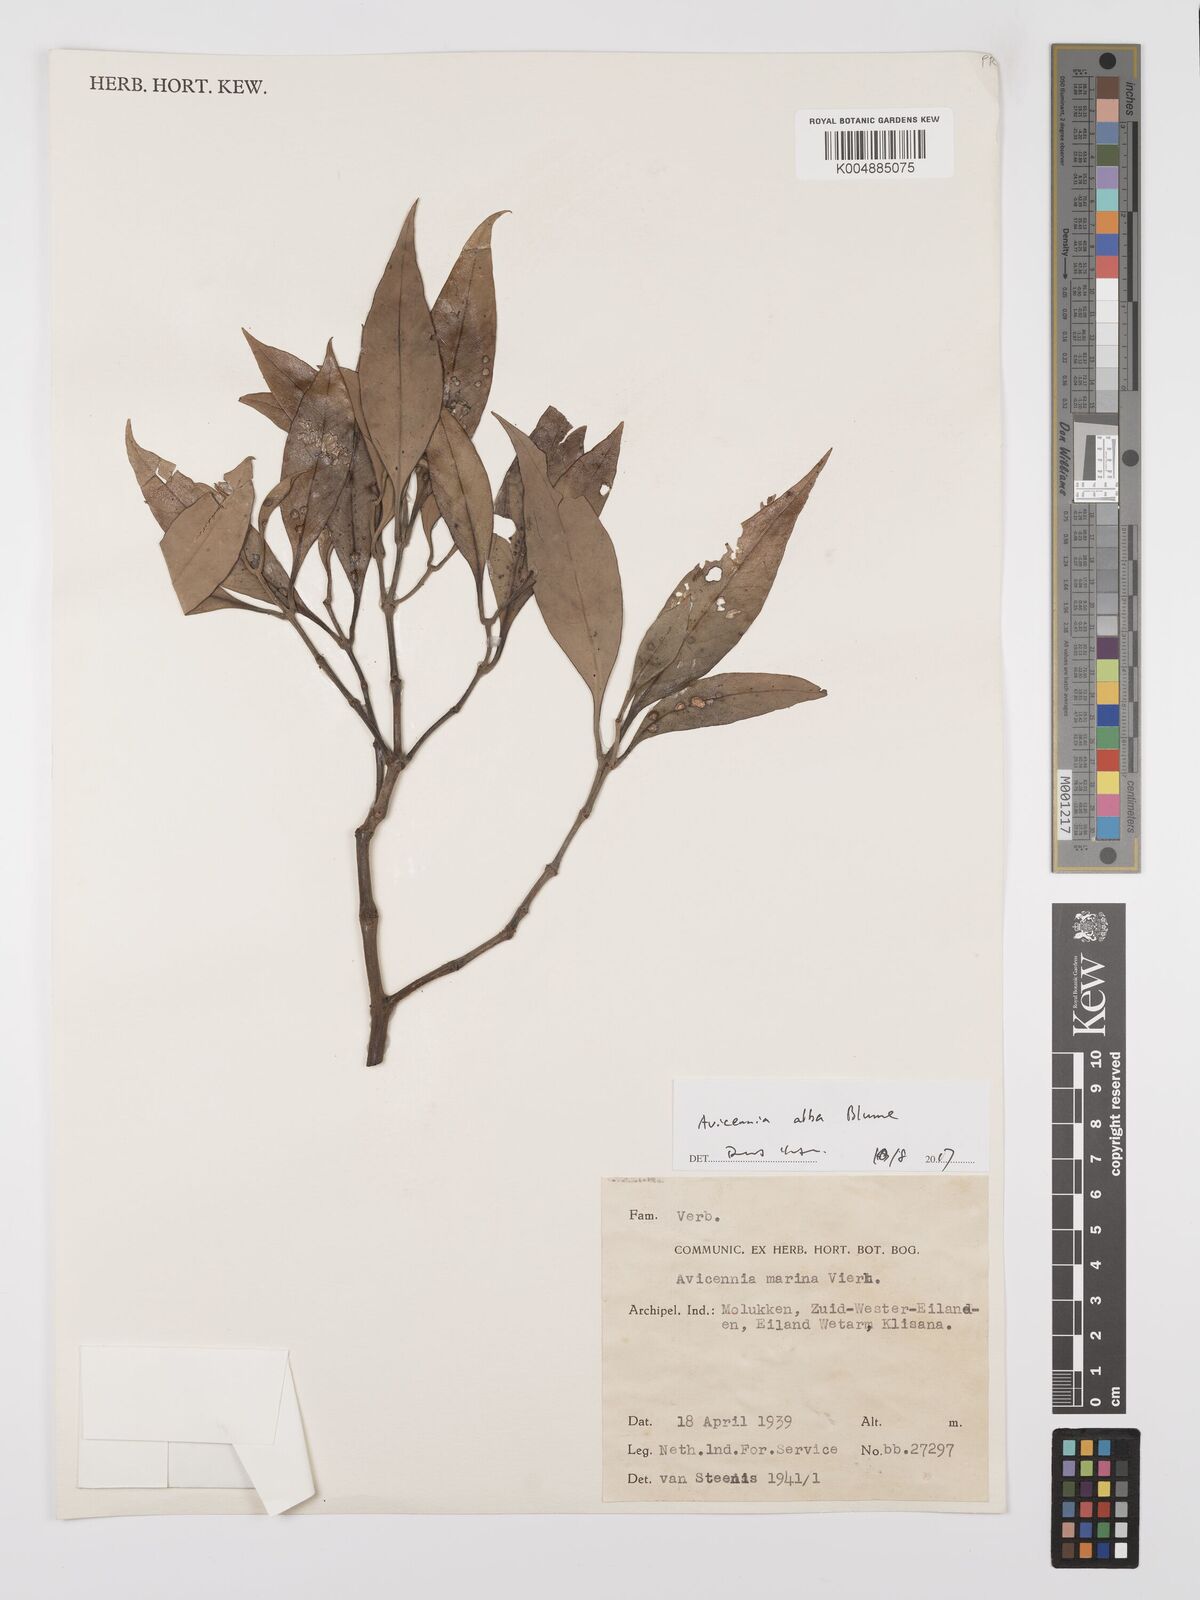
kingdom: Plantae
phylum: Tracheophyta
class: Magnoliopsida
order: Lamiales
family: Acanthaceae
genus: Avicennia
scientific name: Avicennia alba
